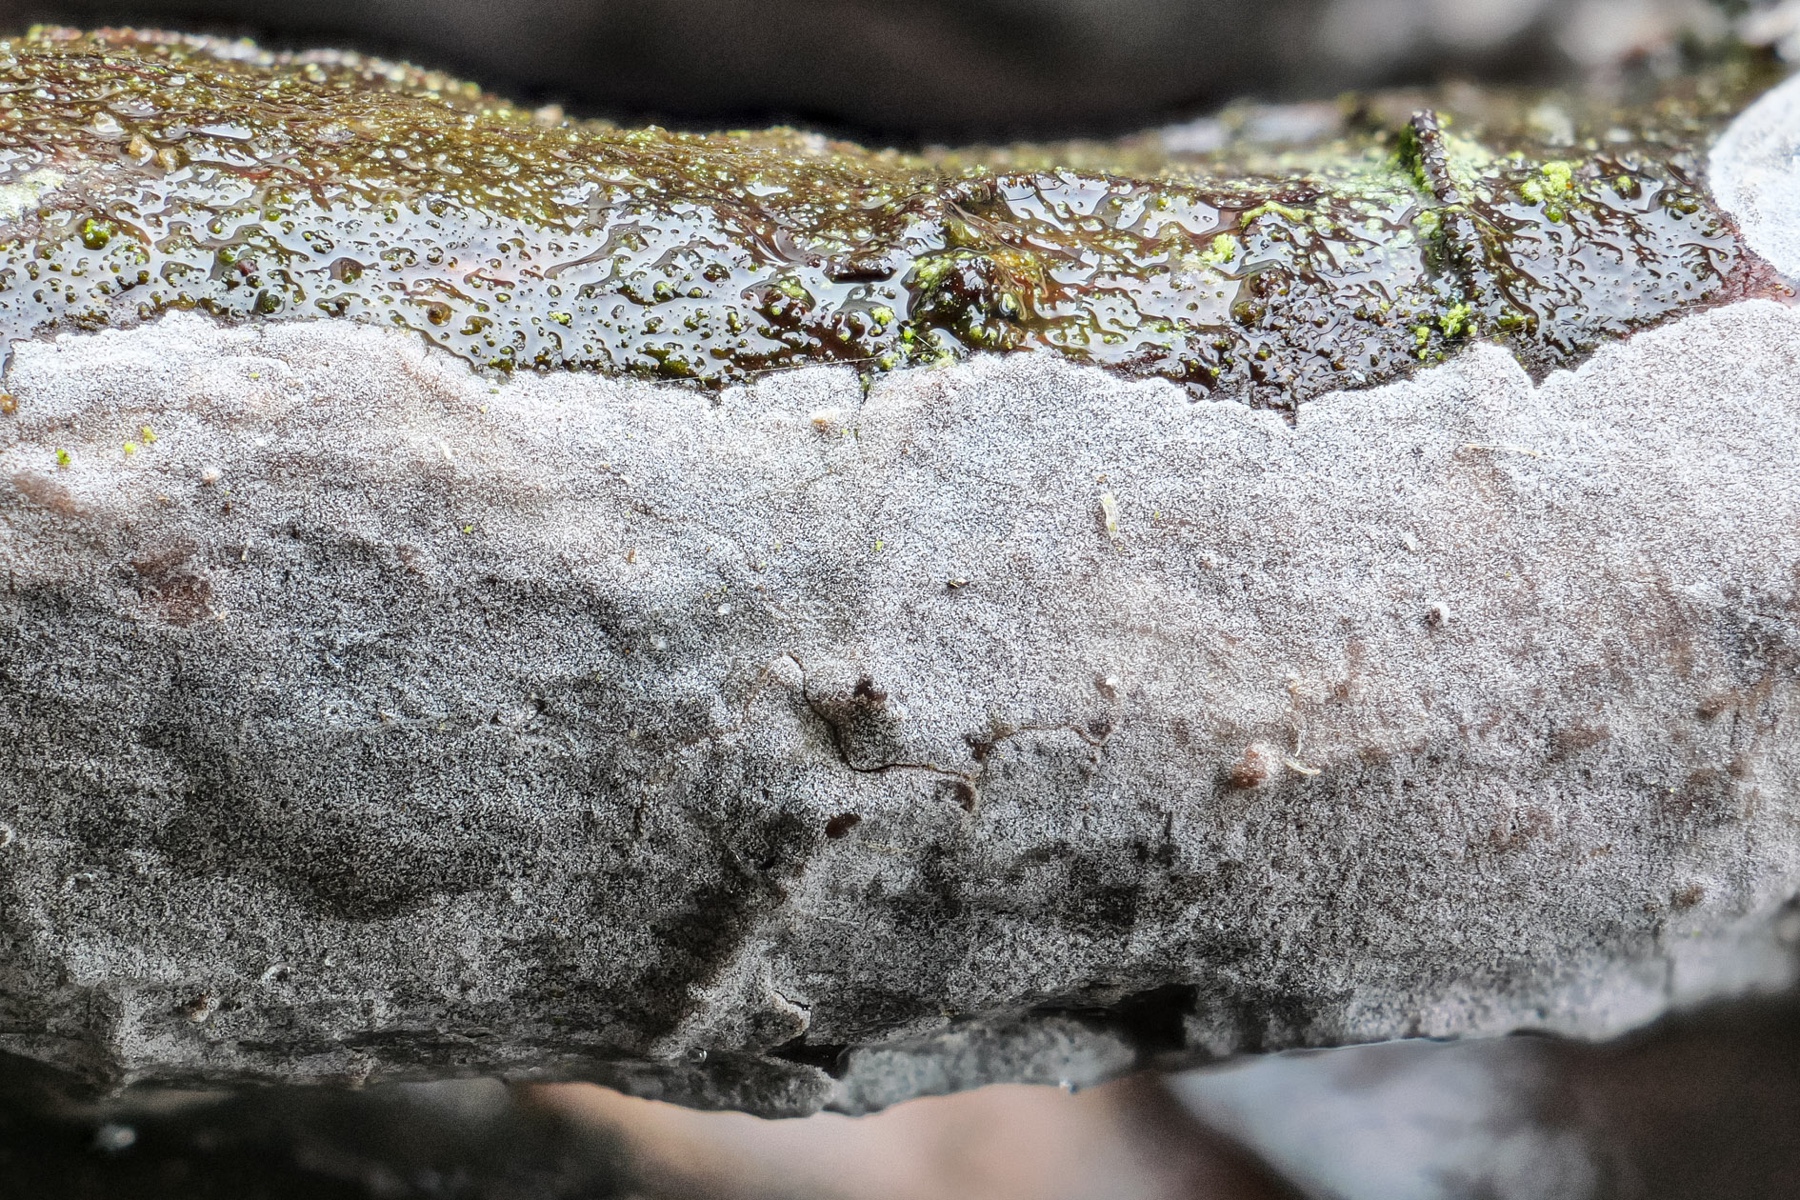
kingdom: Fungi
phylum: Basidiomycota
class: Agaricomycetes
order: Russulales
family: Peniophoraceae
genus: Peniophora
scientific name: Peniophora lycii
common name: grynet voksskind
